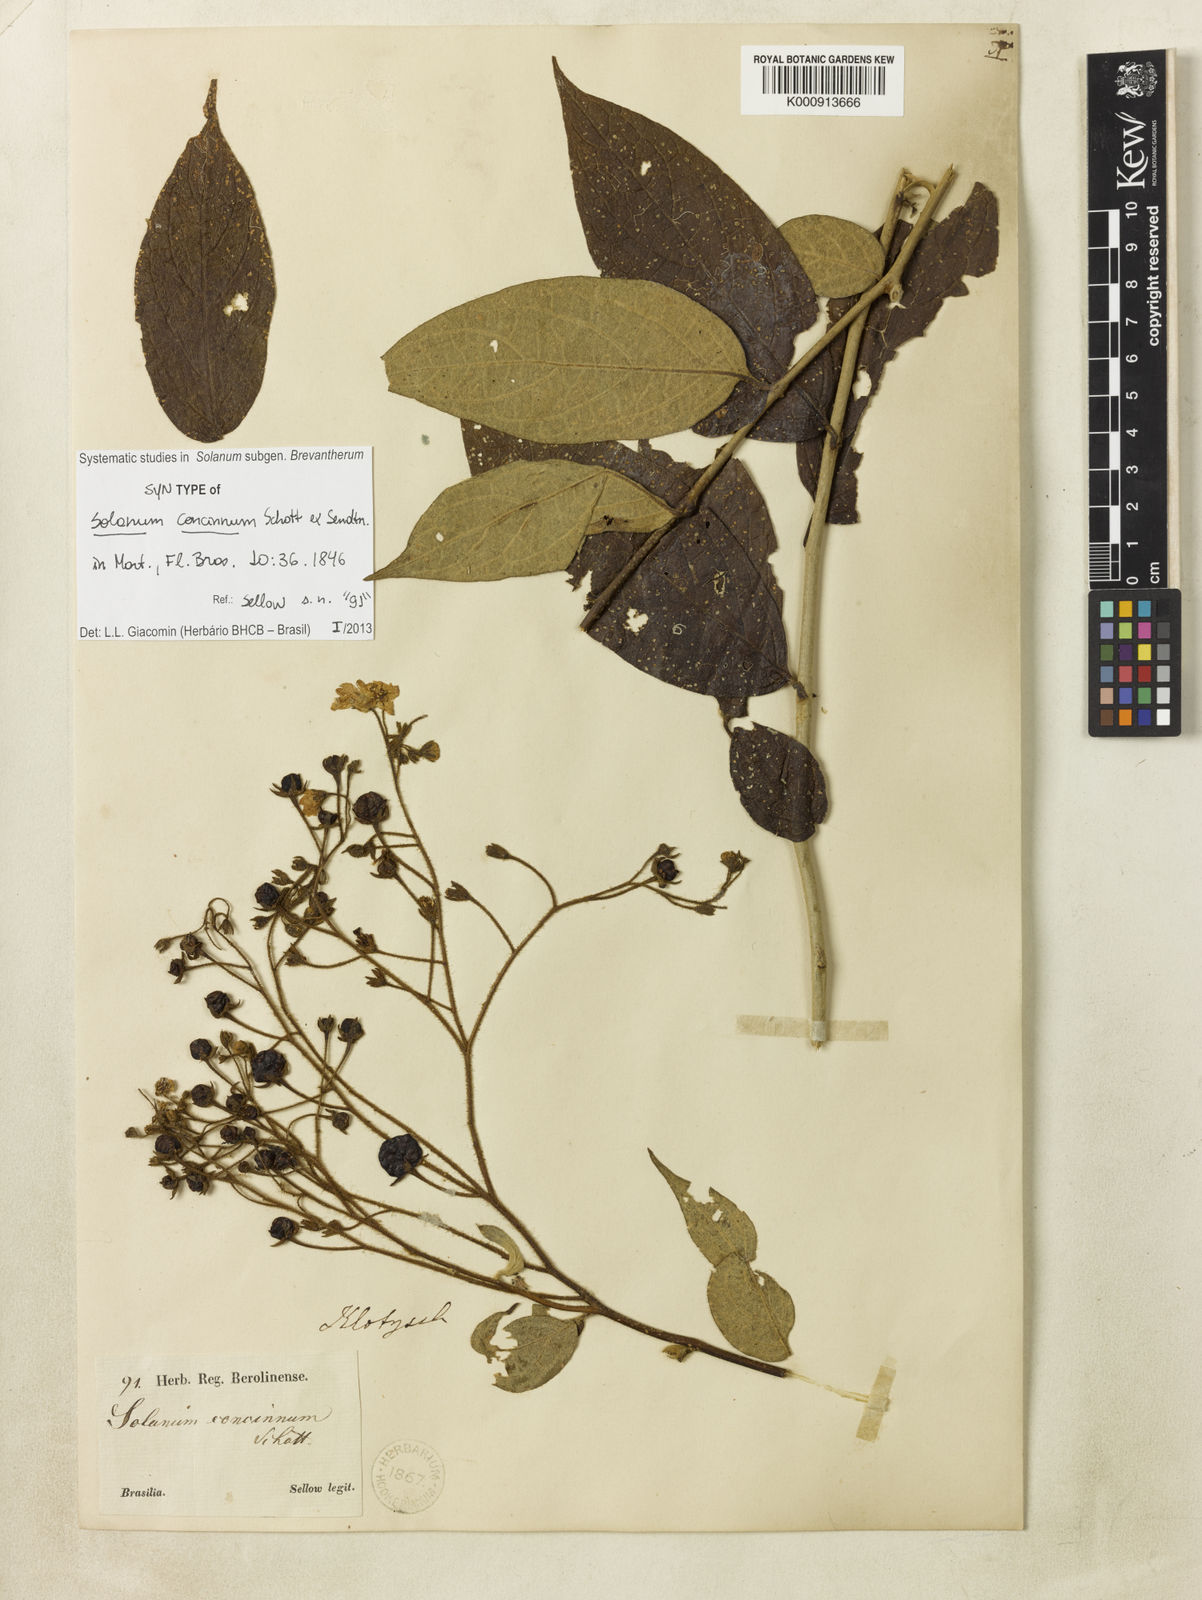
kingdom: Plantae
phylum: Tracheophyta
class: Magnoliopsida
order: Solanales
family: Solanaceae
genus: Solanum
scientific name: Solanum concinnum
